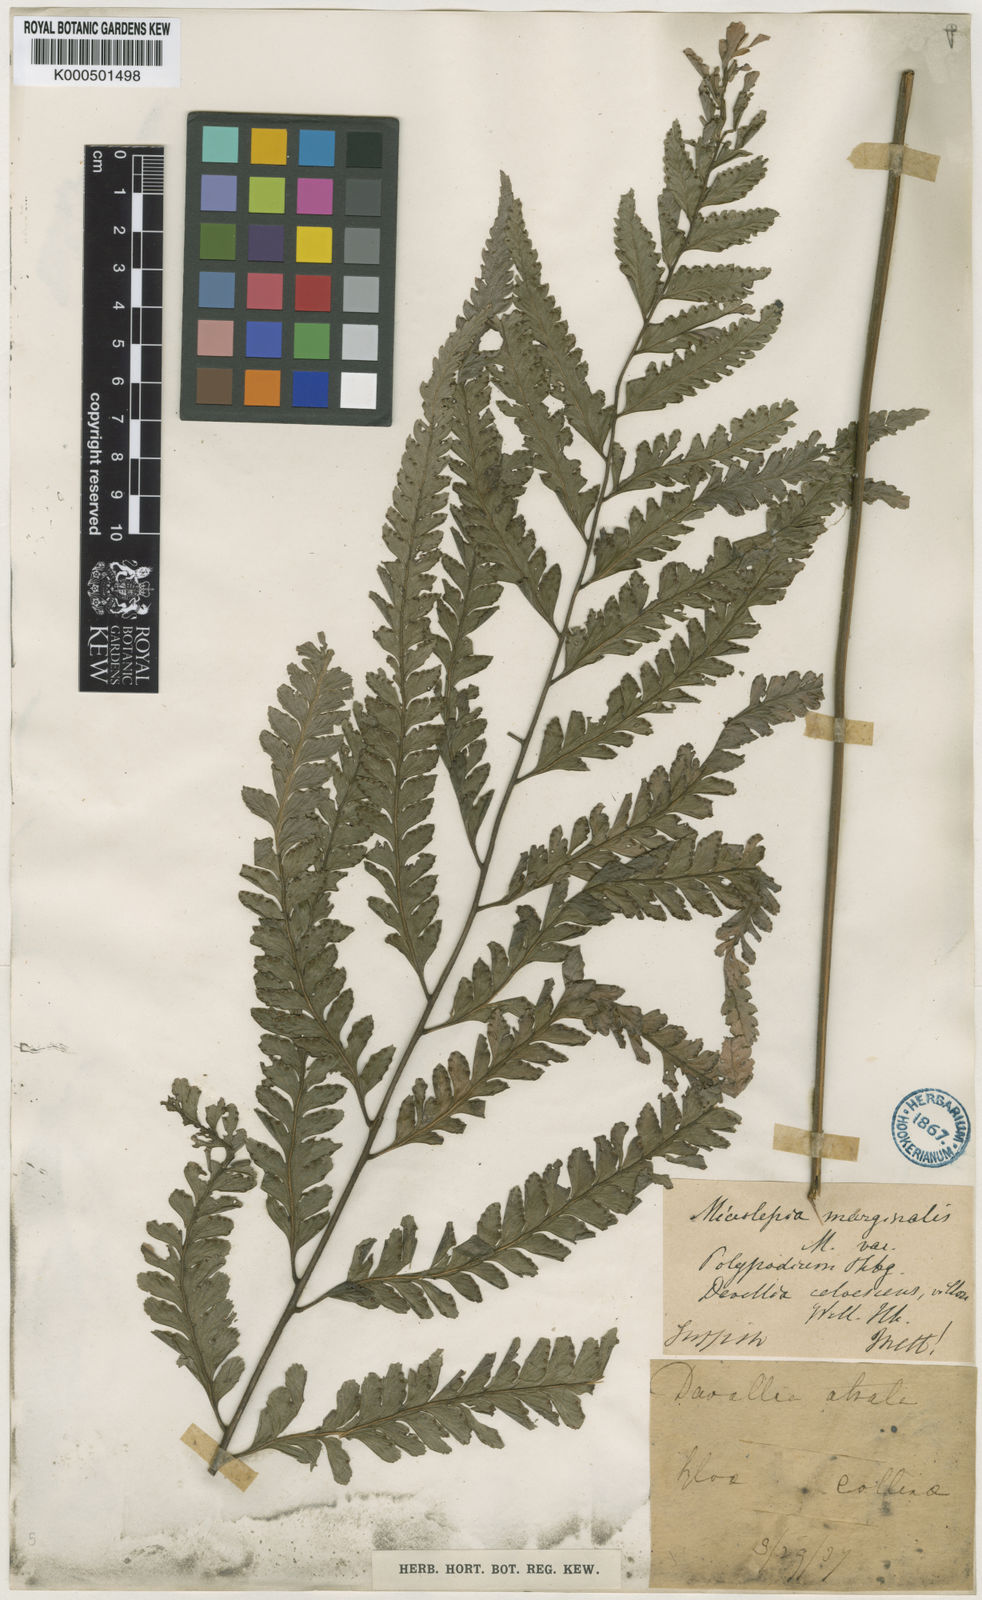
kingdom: Plantae
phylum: Tracheophyta
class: Polypodiopsida
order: Polypodiales
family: Dennstaedtiaceae
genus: Microlepia
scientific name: Microlepia
